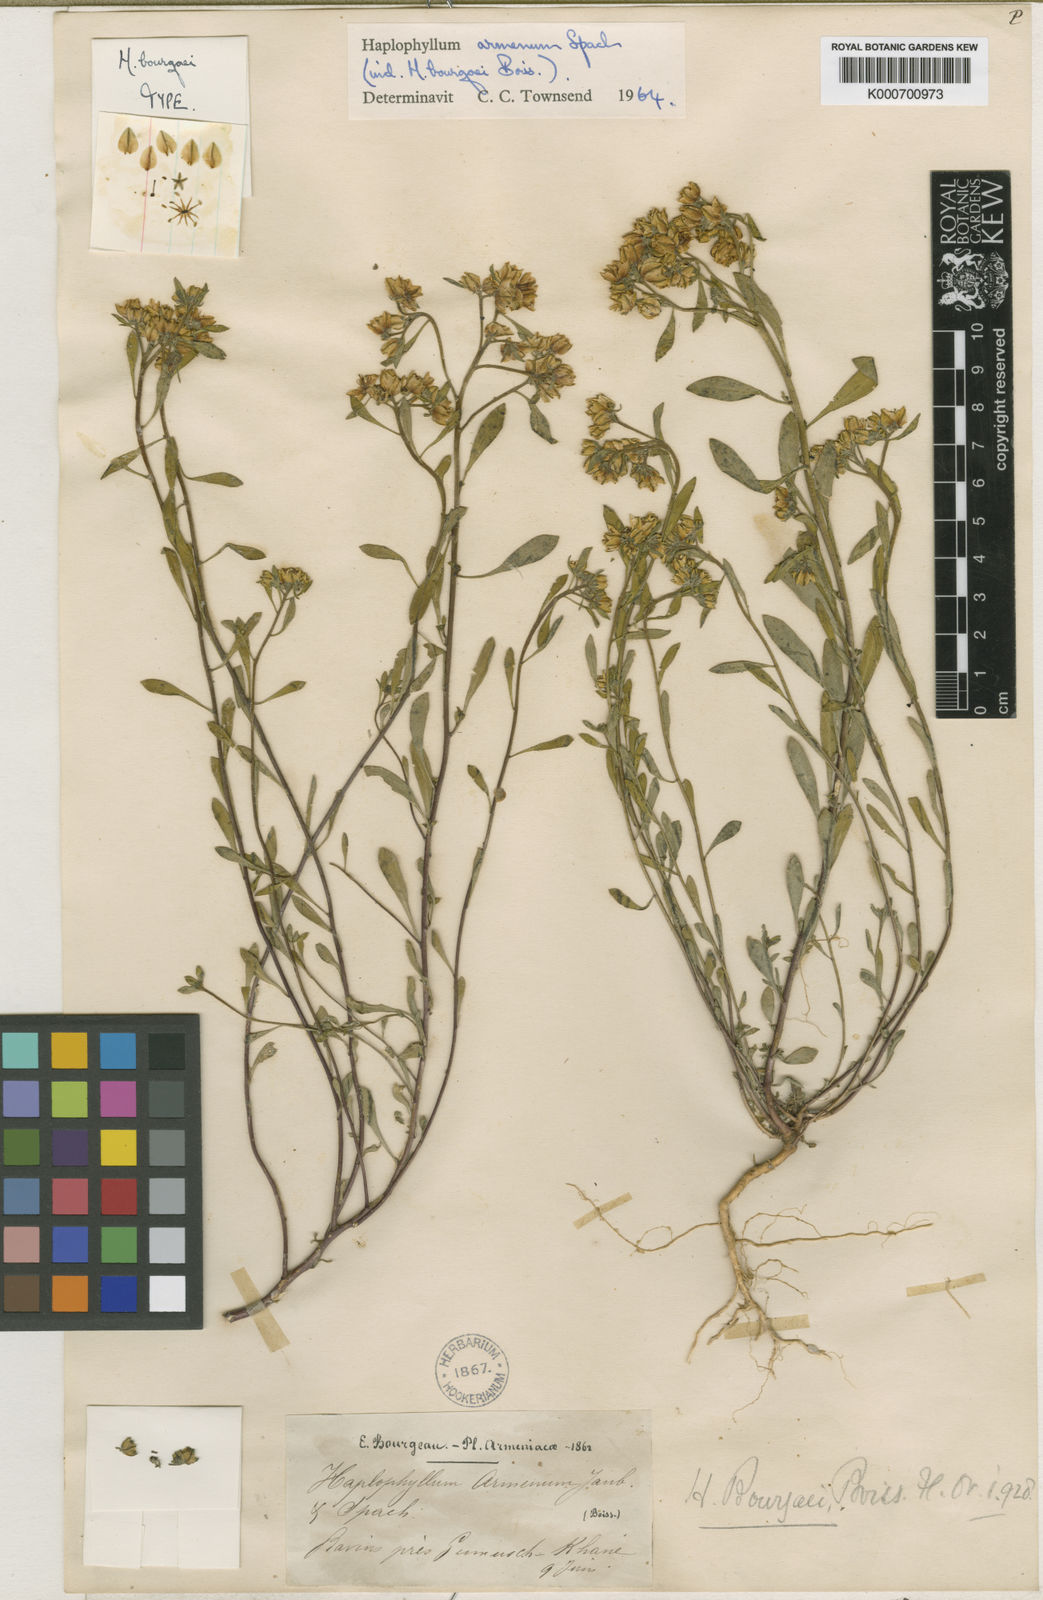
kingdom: Plantae
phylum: Tracheophyta
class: Magnoliopsida
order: Sapindales
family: Rutaceae
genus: Haplophyllum
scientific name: Haplophyllum armenum
